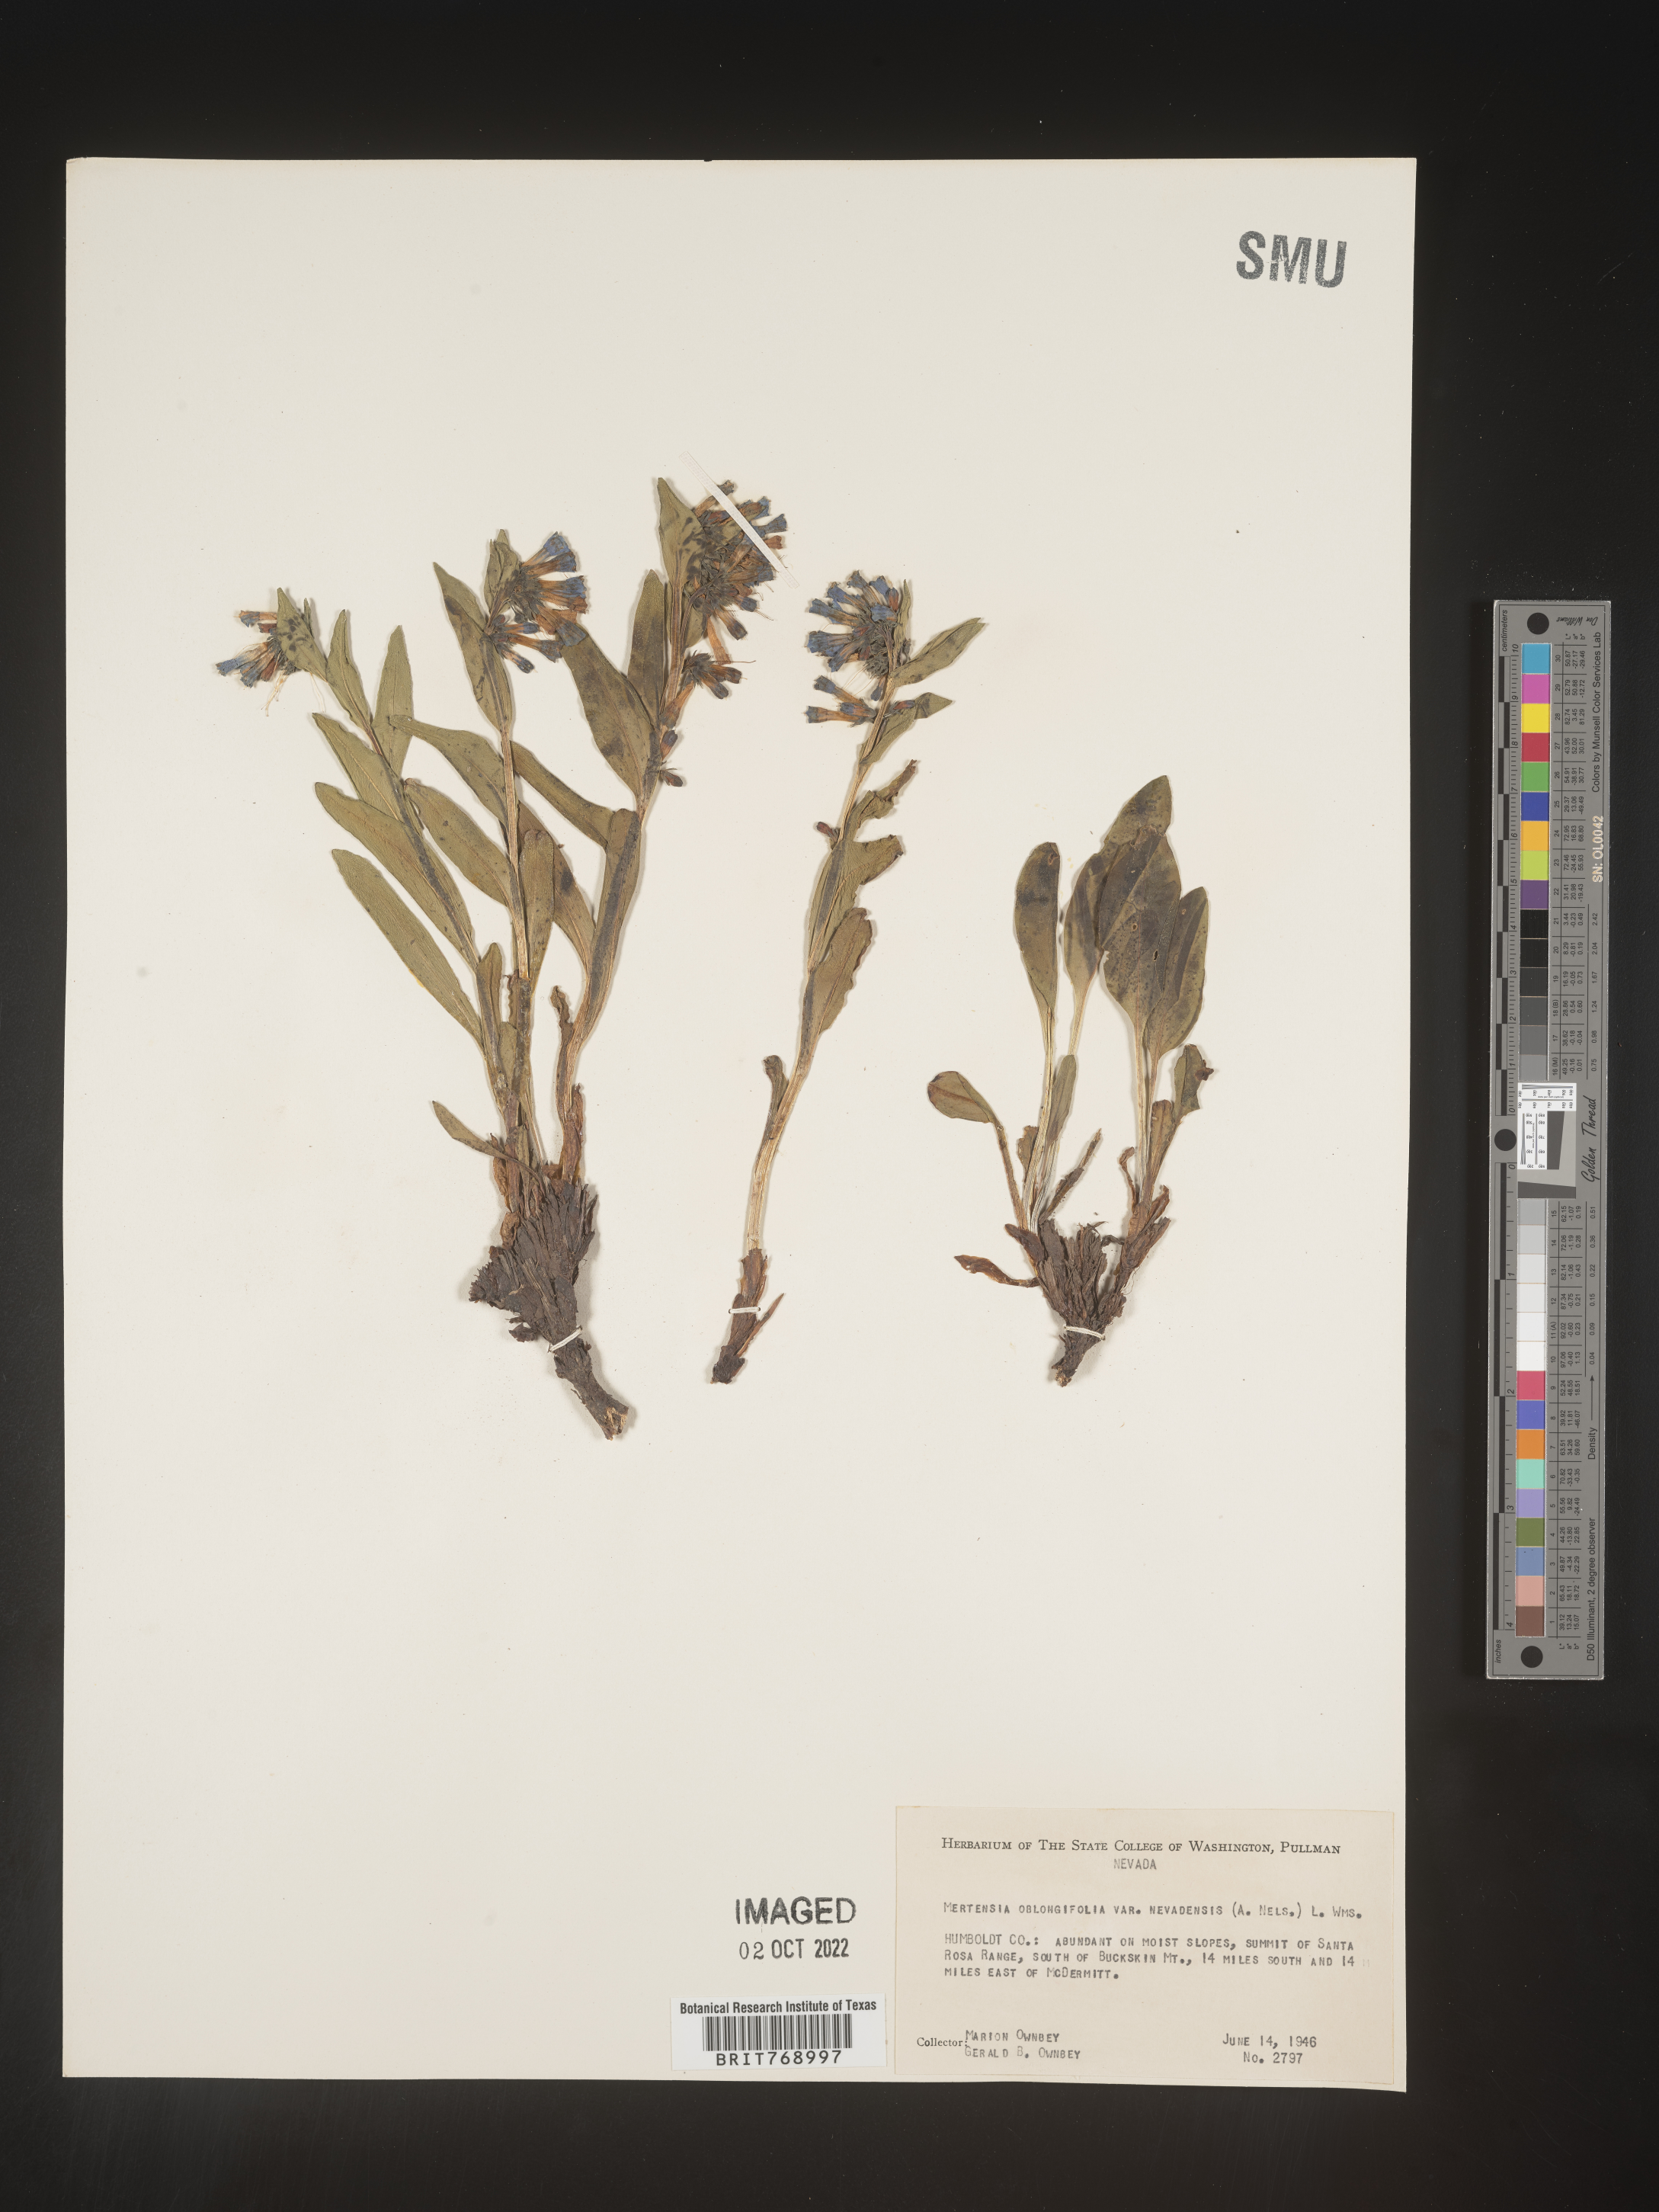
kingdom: Plantae
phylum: Tracheophyta
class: Magnoliopsida
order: Boraginales
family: Boraginaceae
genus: Mertensia
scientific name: Mertensia
